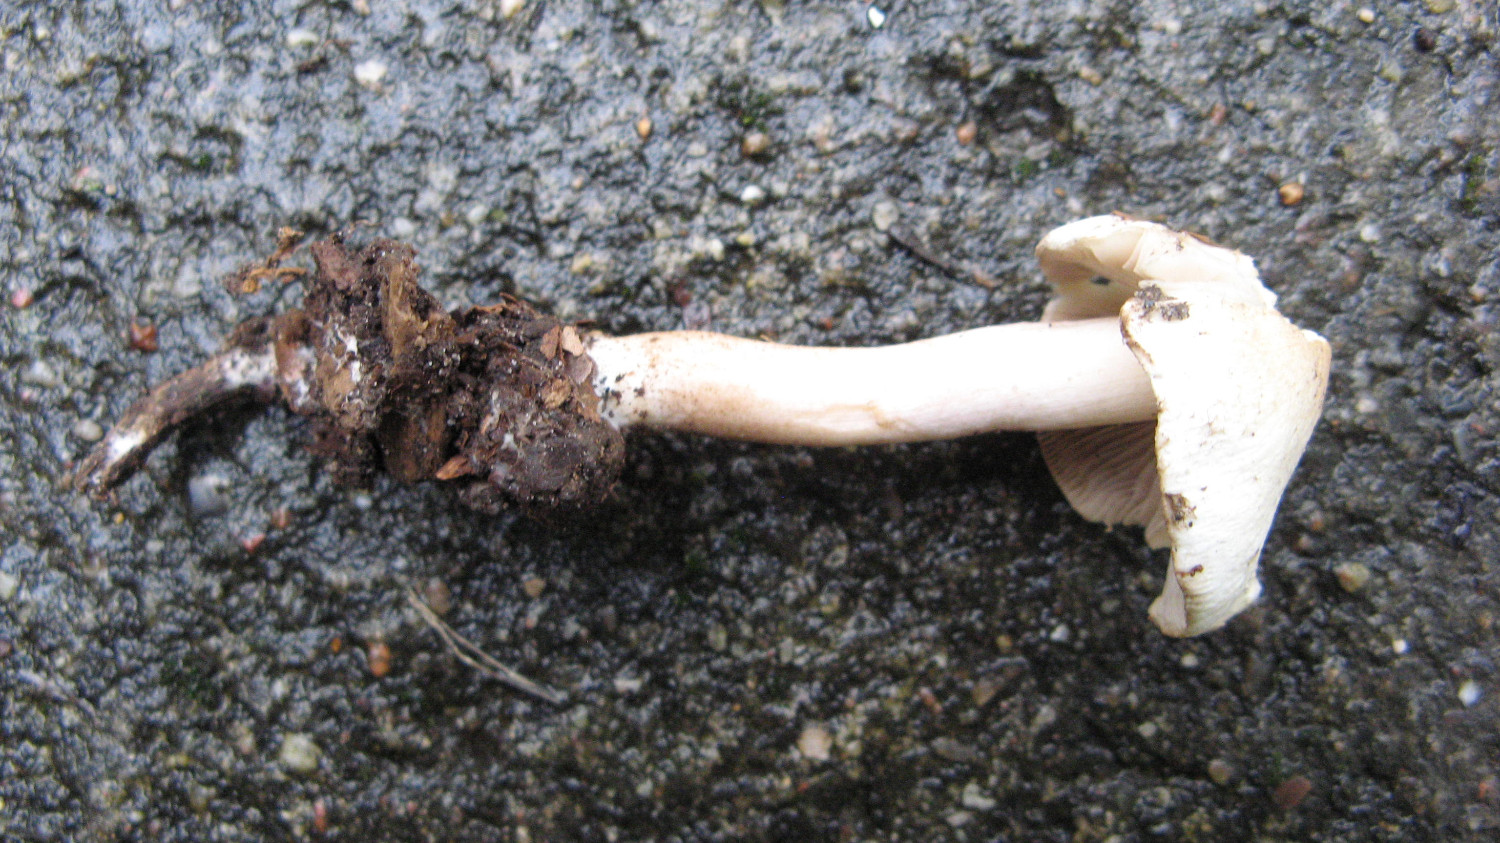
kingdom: Fungi
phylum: Basidiomycota
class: Agaricomycetes
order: Agaricales
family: Inocybaceae
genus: Inocybe
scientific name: Inocybe sindonia
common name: bleg trævlhat
